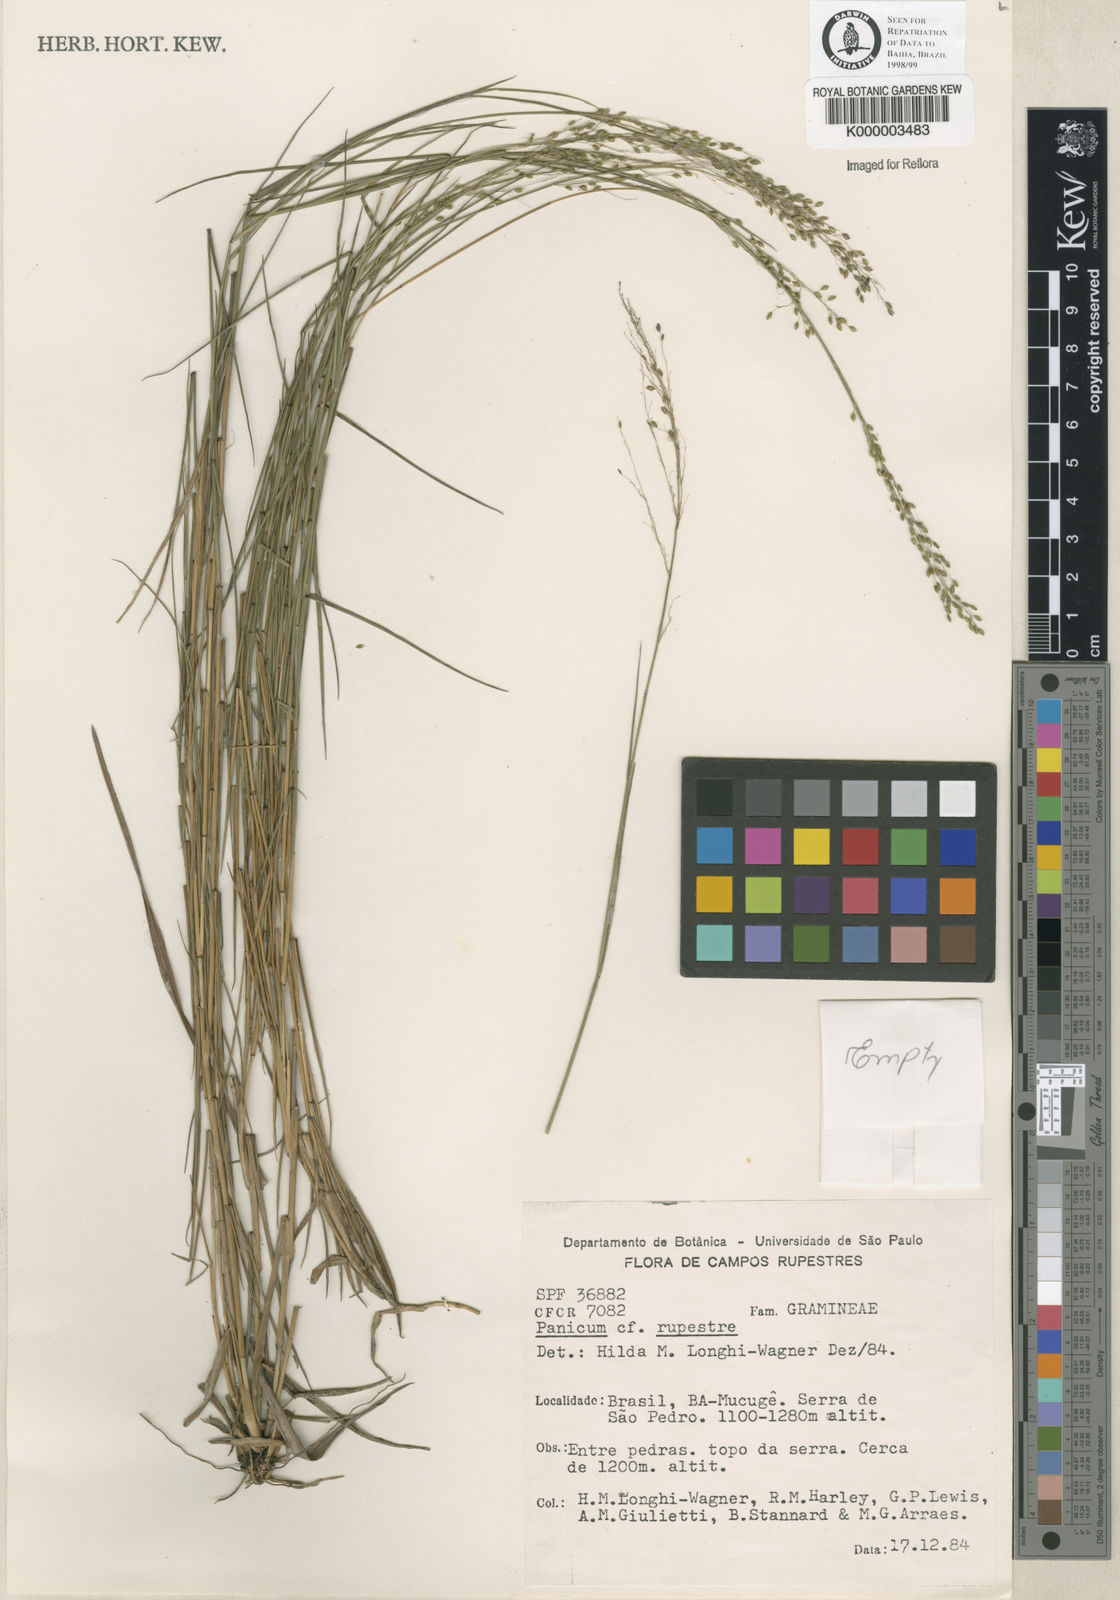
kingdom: Plantae
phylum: Tracheophyta
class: Liliopsida
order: Poales
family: Poaceae
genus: Panicum
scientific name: Panicum
